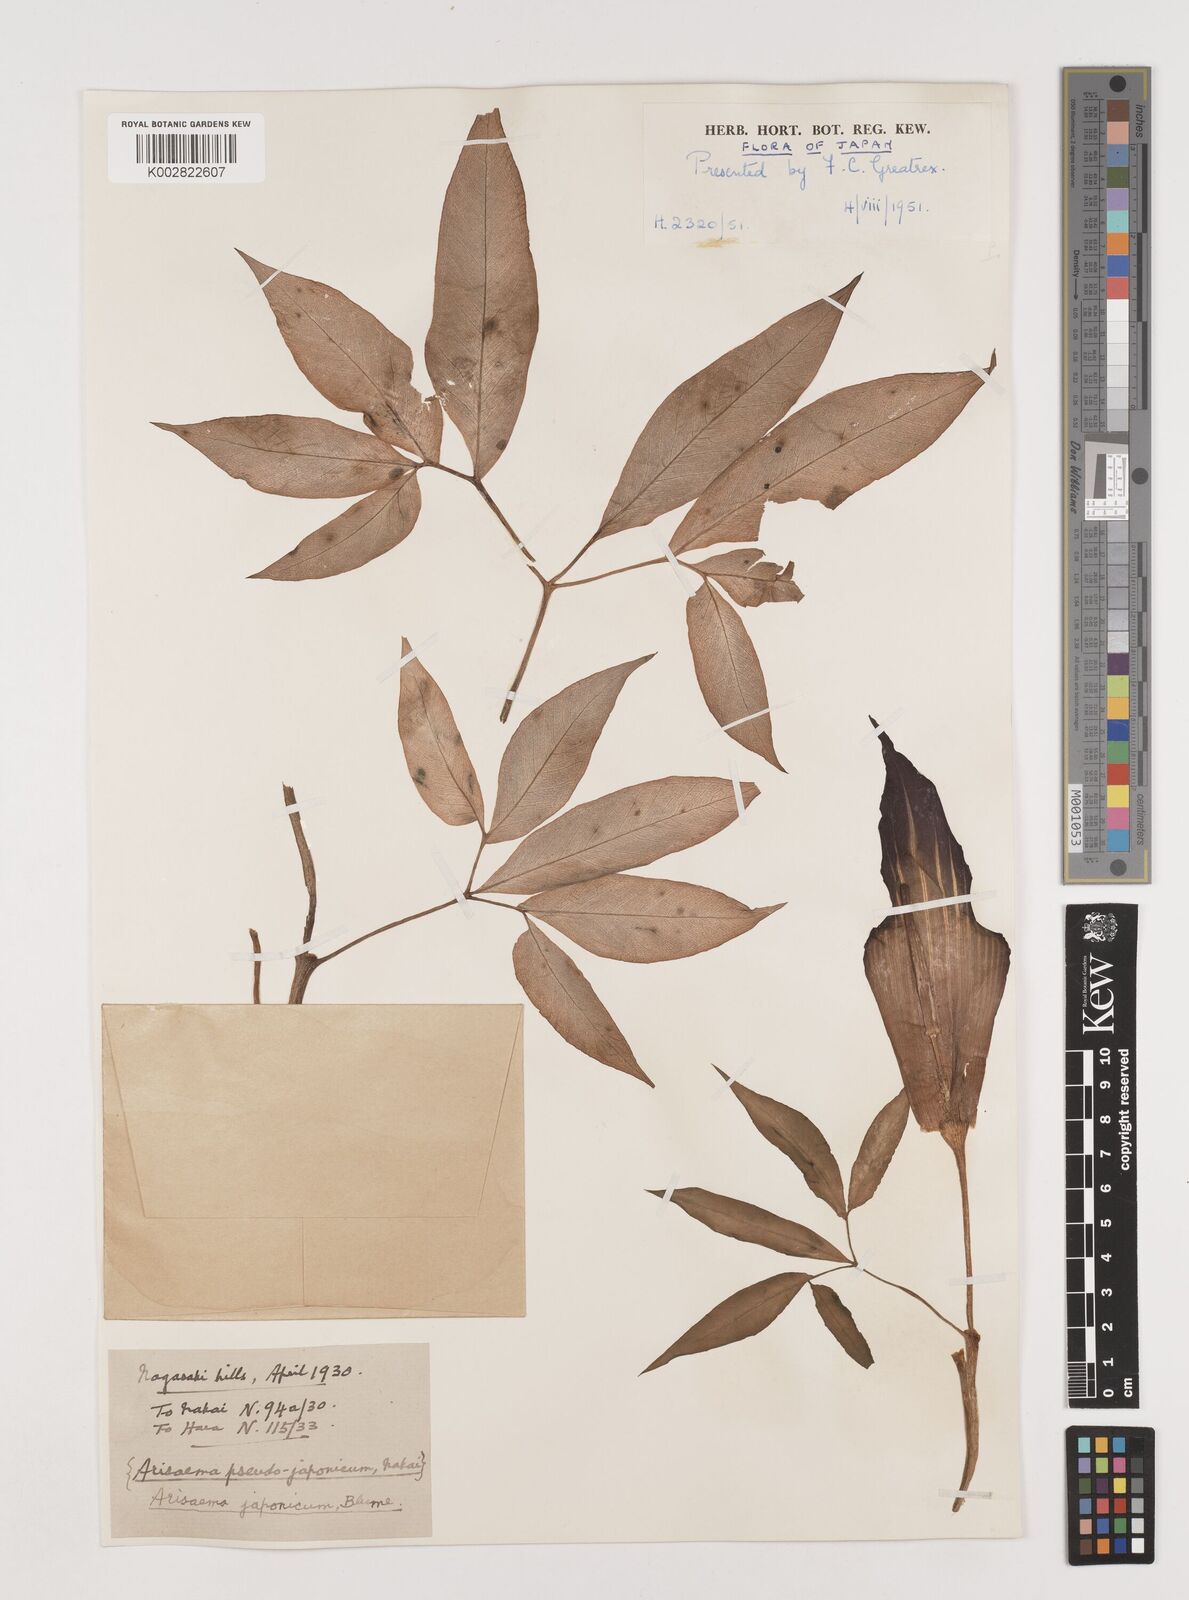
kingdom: Plantae
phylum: Tracheophyta
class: Liliopsida
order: Alismatales
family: Araceae
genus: Arisaema
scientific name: Arisaema serratum
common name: Japanese arisaema
